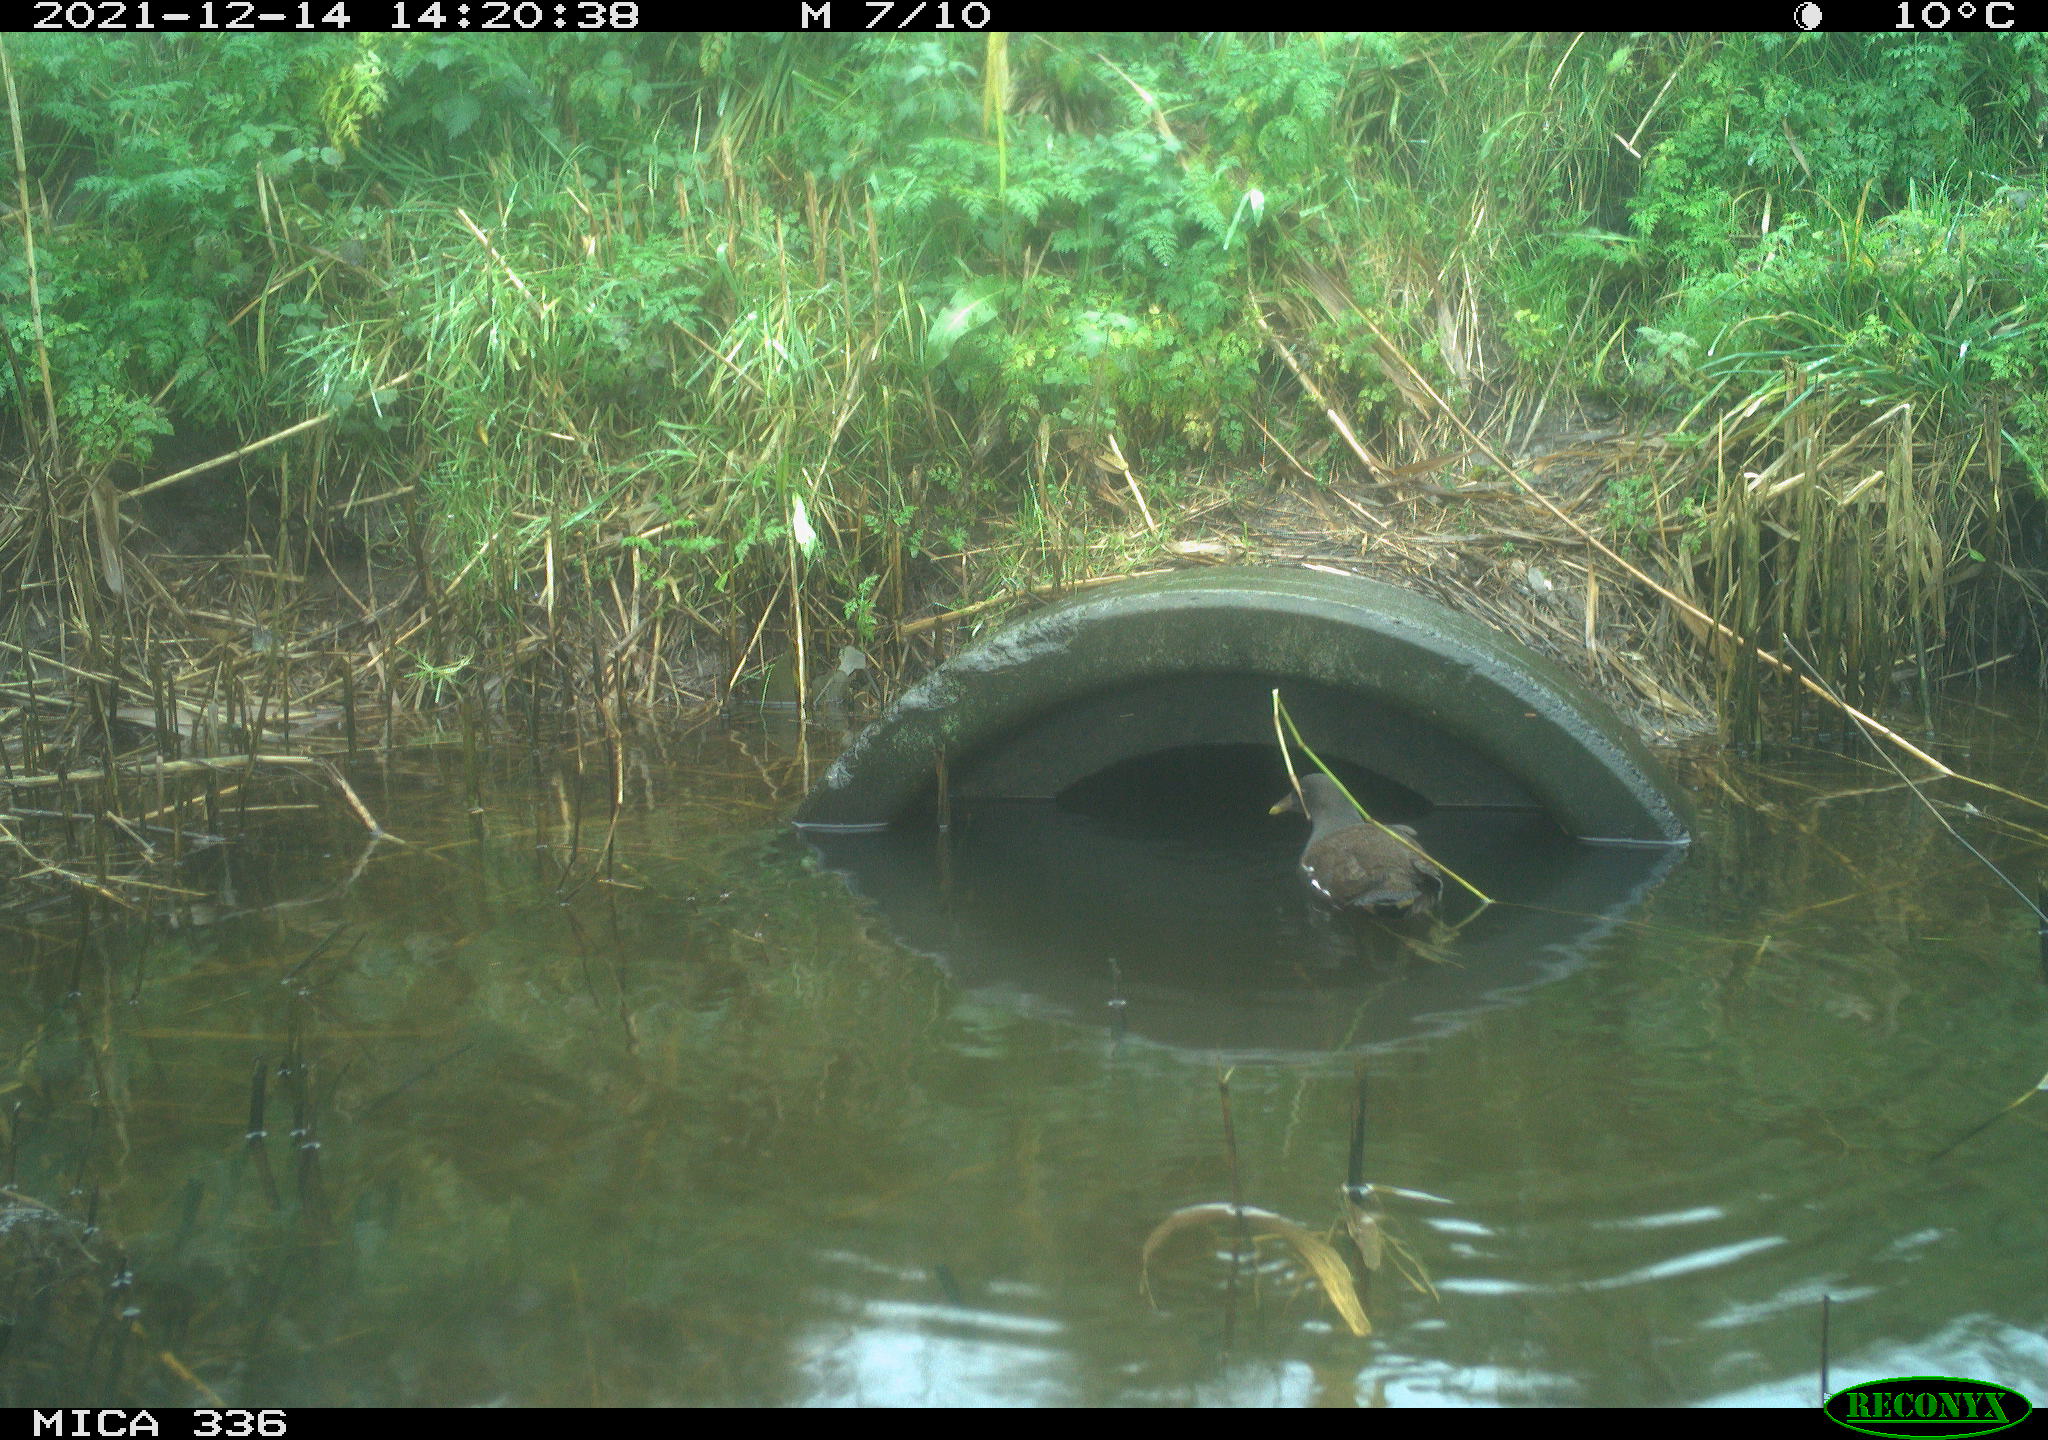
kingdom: Animalia
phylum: Chordata
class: Aves
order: Gruiformes
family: Rallidae
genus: Gallinula
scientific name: Gallinula chloropus
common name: Common moorhen
